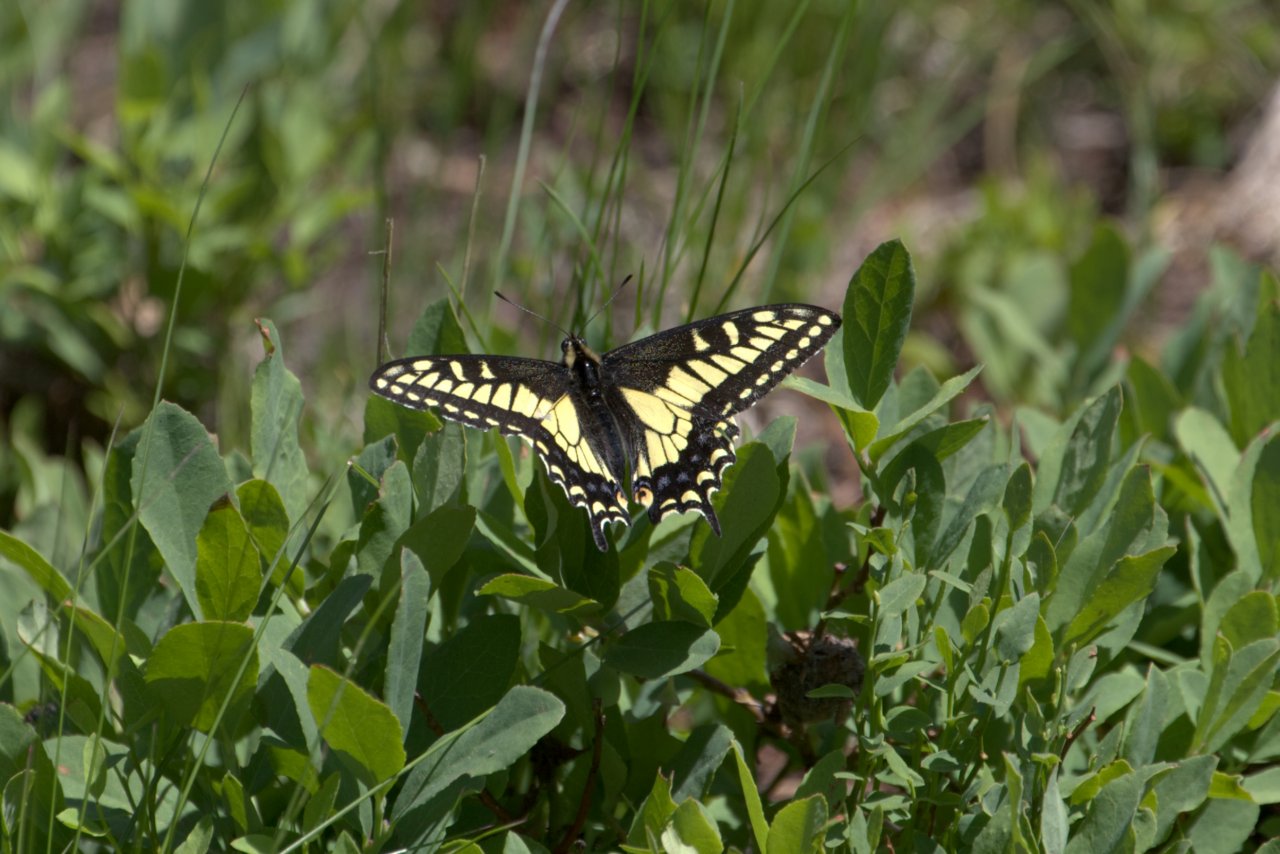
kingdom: Animalia
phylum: Arthropoda
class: Insecta
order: Lepidoptera
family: Papilionidae
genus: Papilio
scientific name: Papilio zelicaon
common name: Anise Swallowtail
